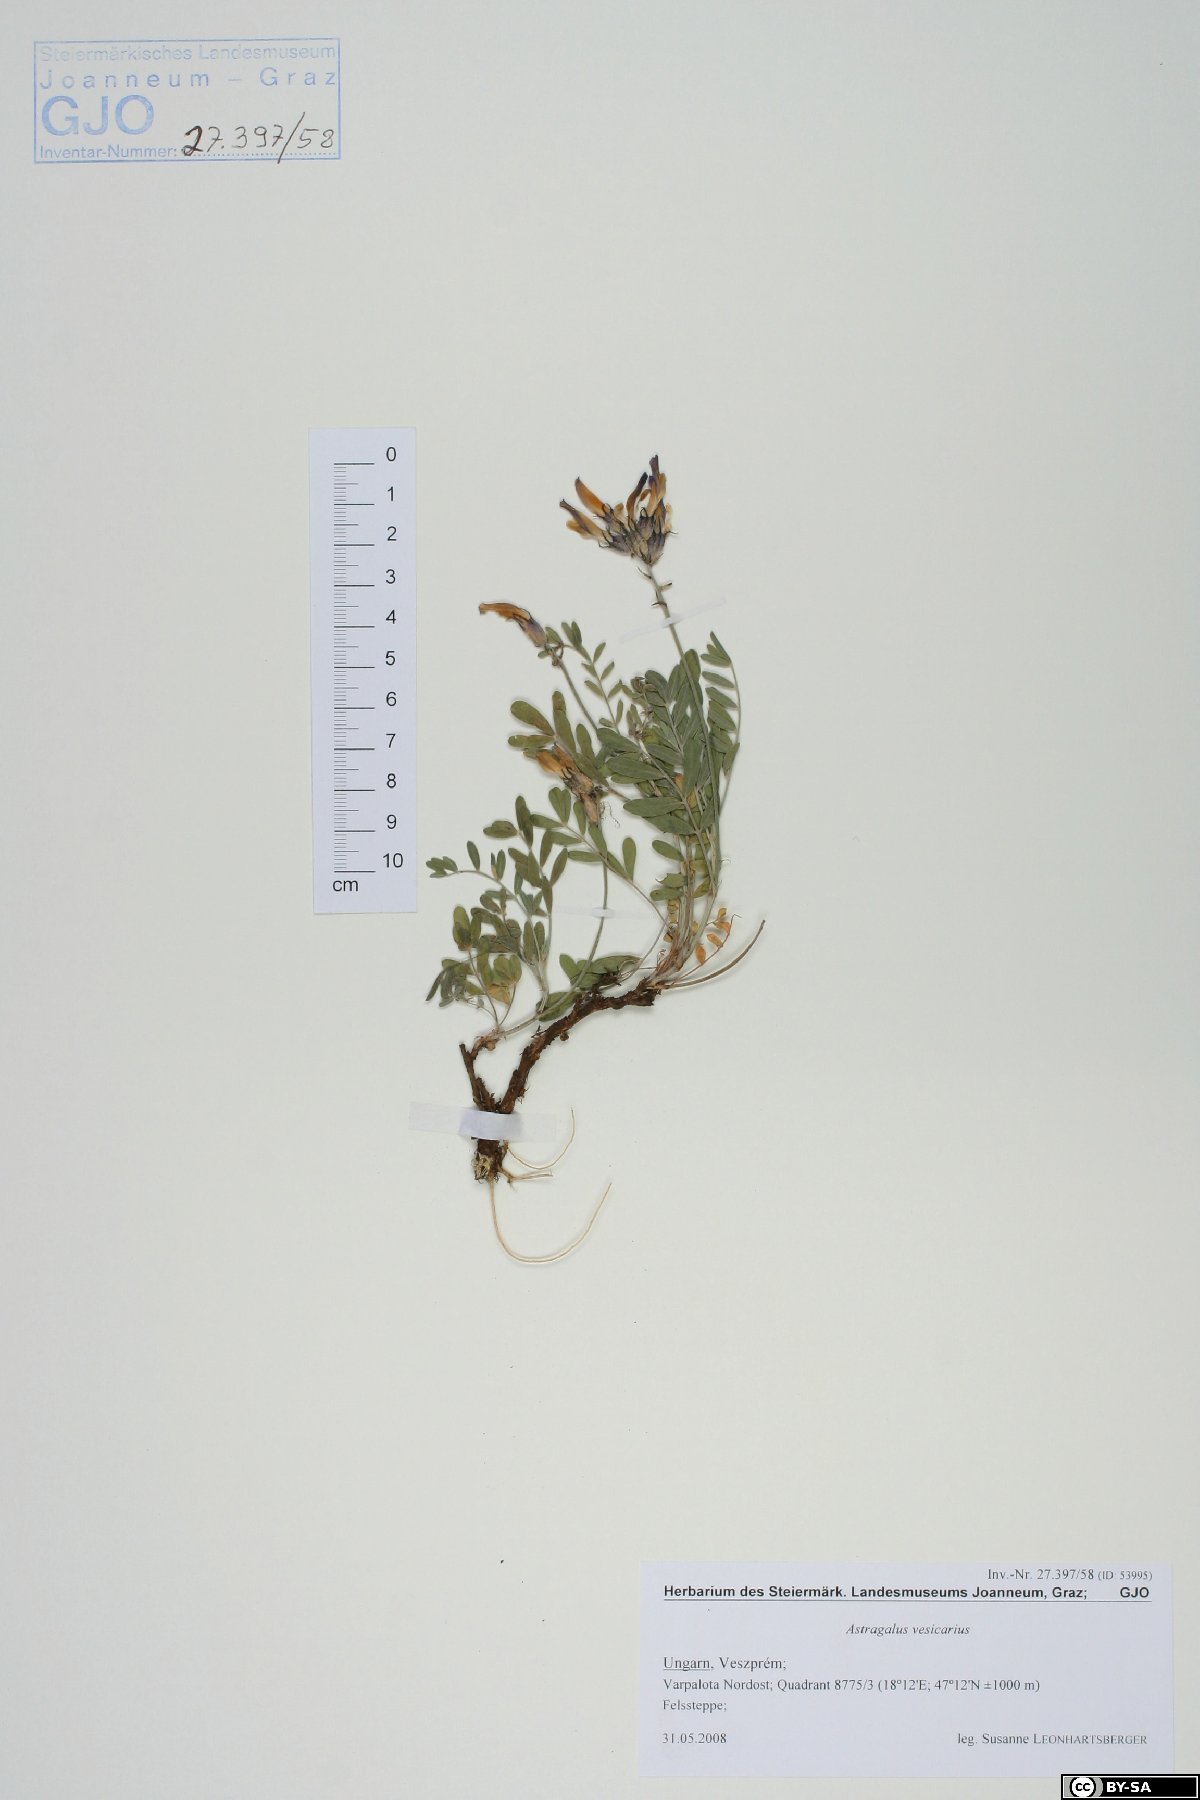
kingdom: Plantae
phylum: Tracheophyta
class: Magnoliopsida
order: Fabales
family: Fabaceae
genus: Astragalus
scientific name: Astragalus vesicarius
